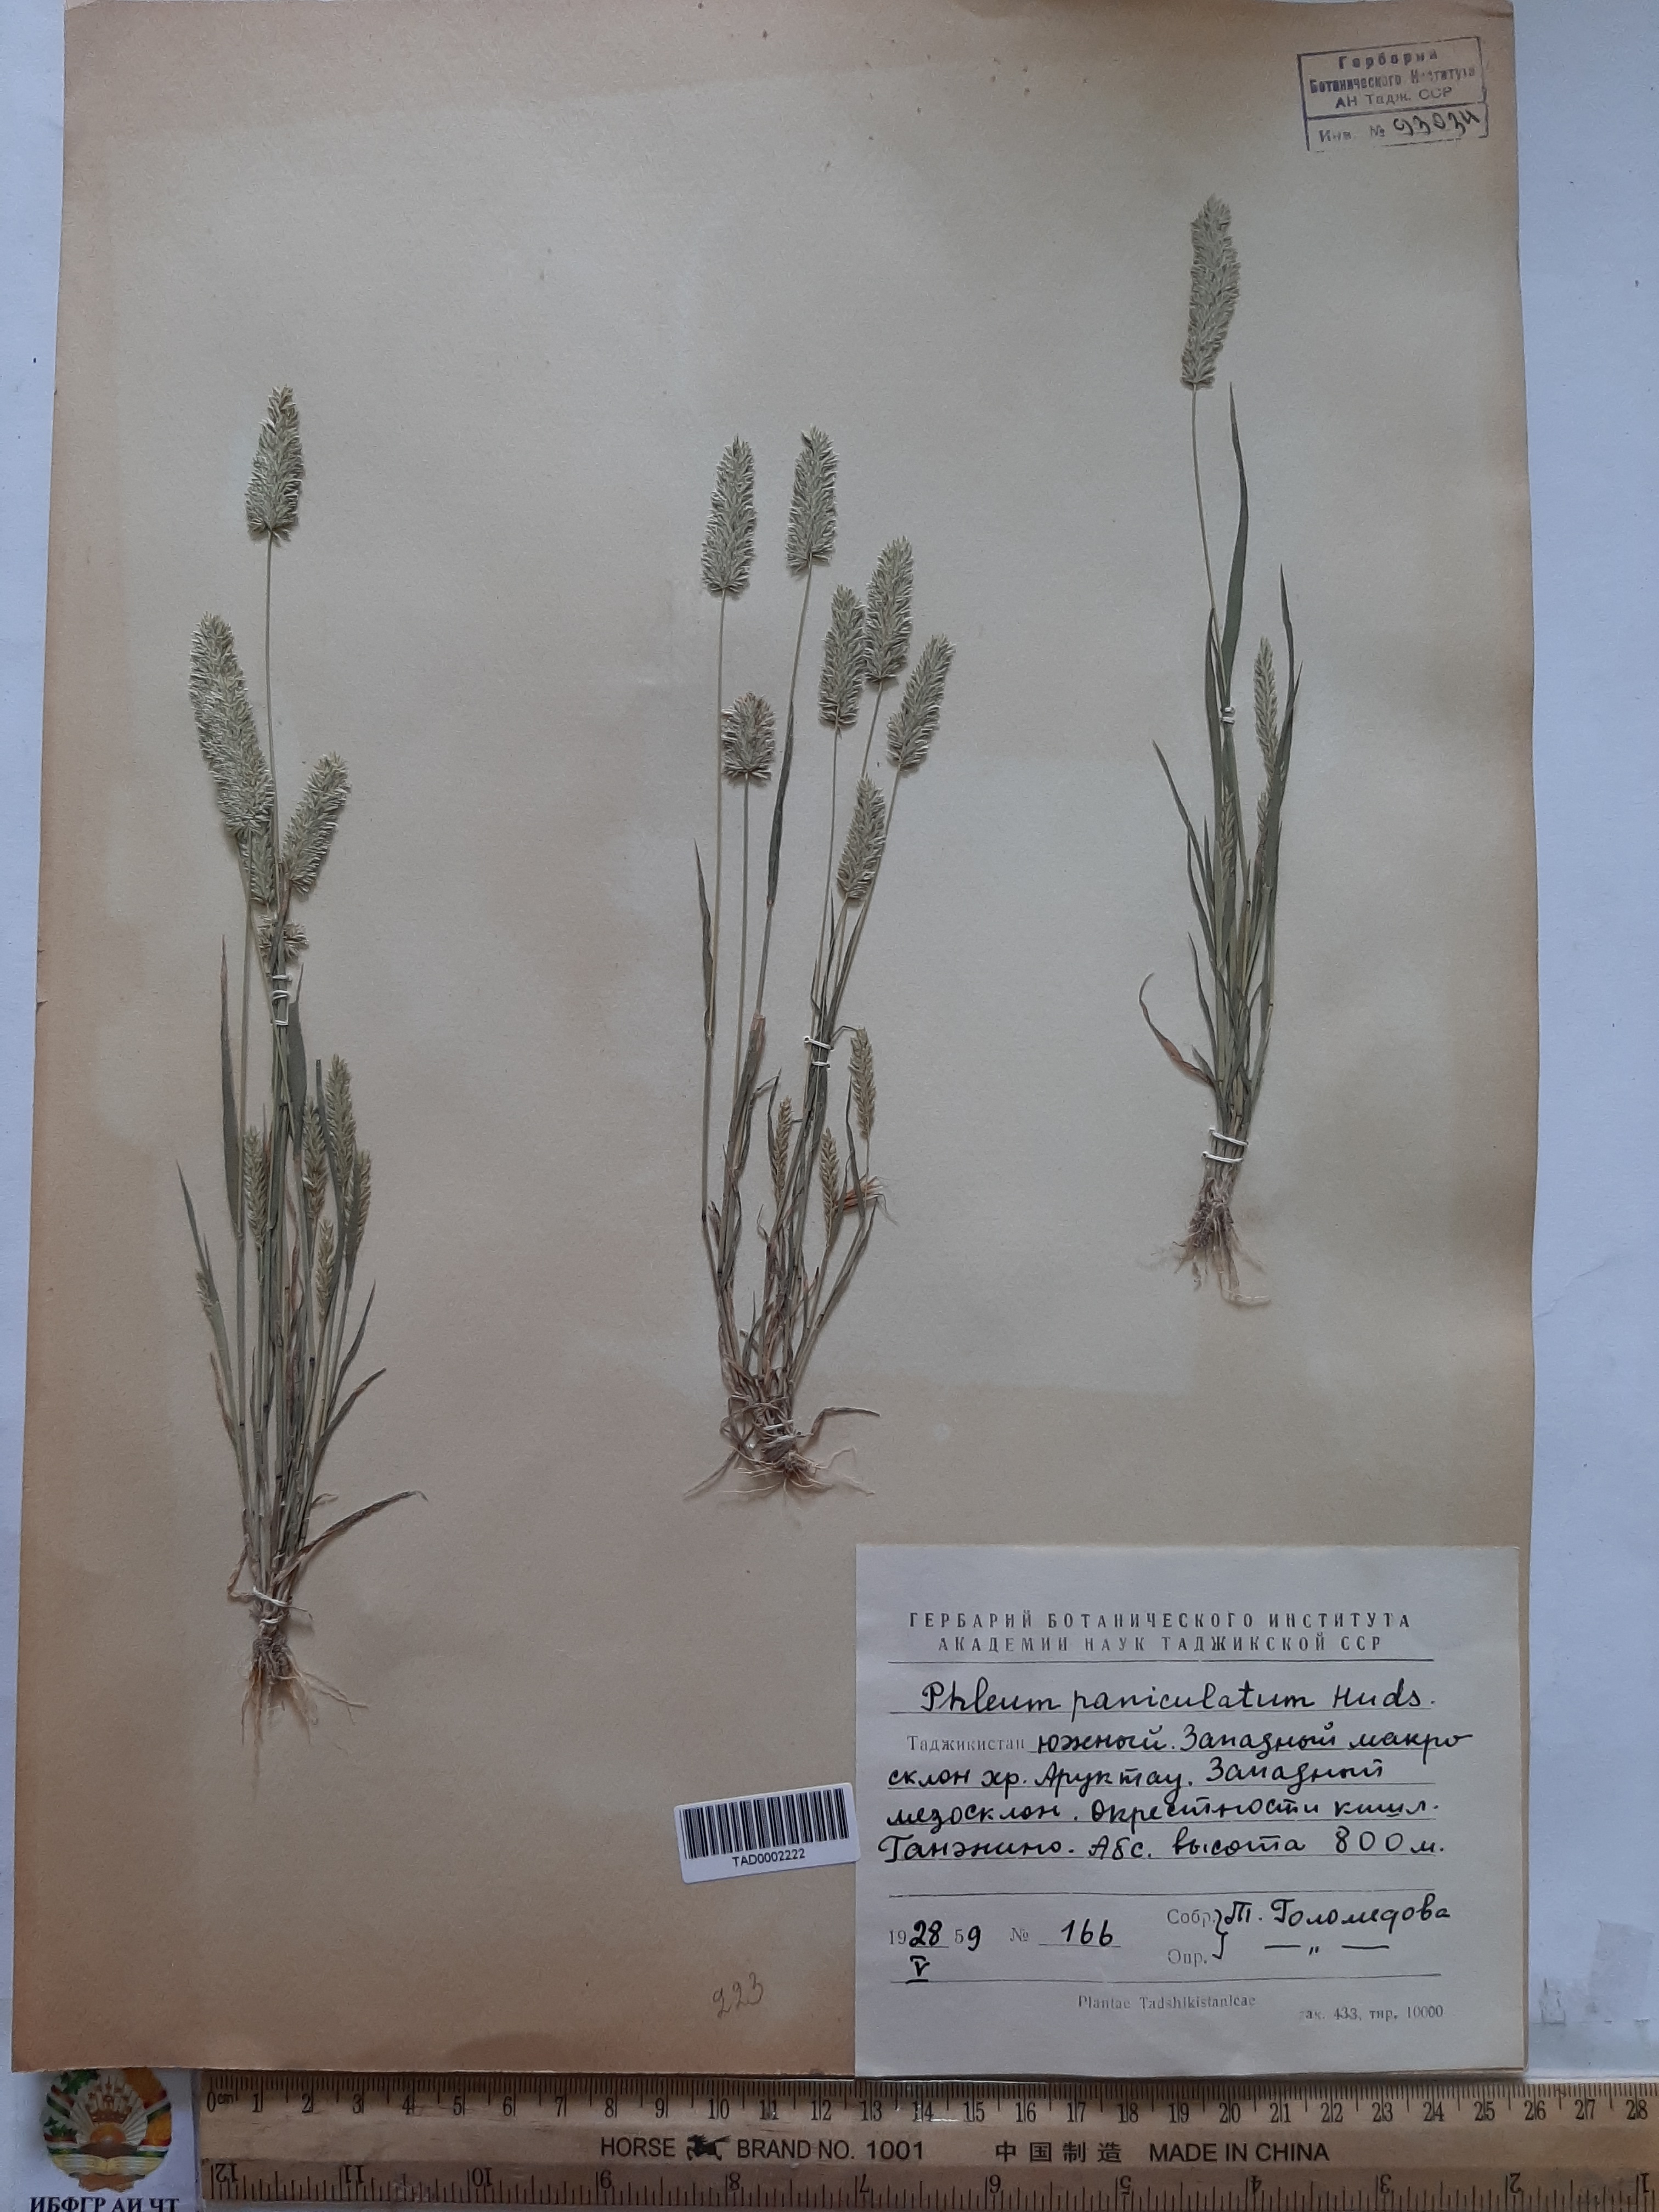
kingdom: Plantae
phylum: Tracheophyta
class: Liliopsida
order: Poales
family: Poaceae
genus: Phleum
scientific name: Phleum paniculatum
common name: British timothy
